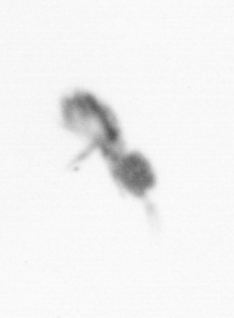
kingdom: Animalia
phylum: Arthropoda
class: Copepoda
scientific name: Copepoda
